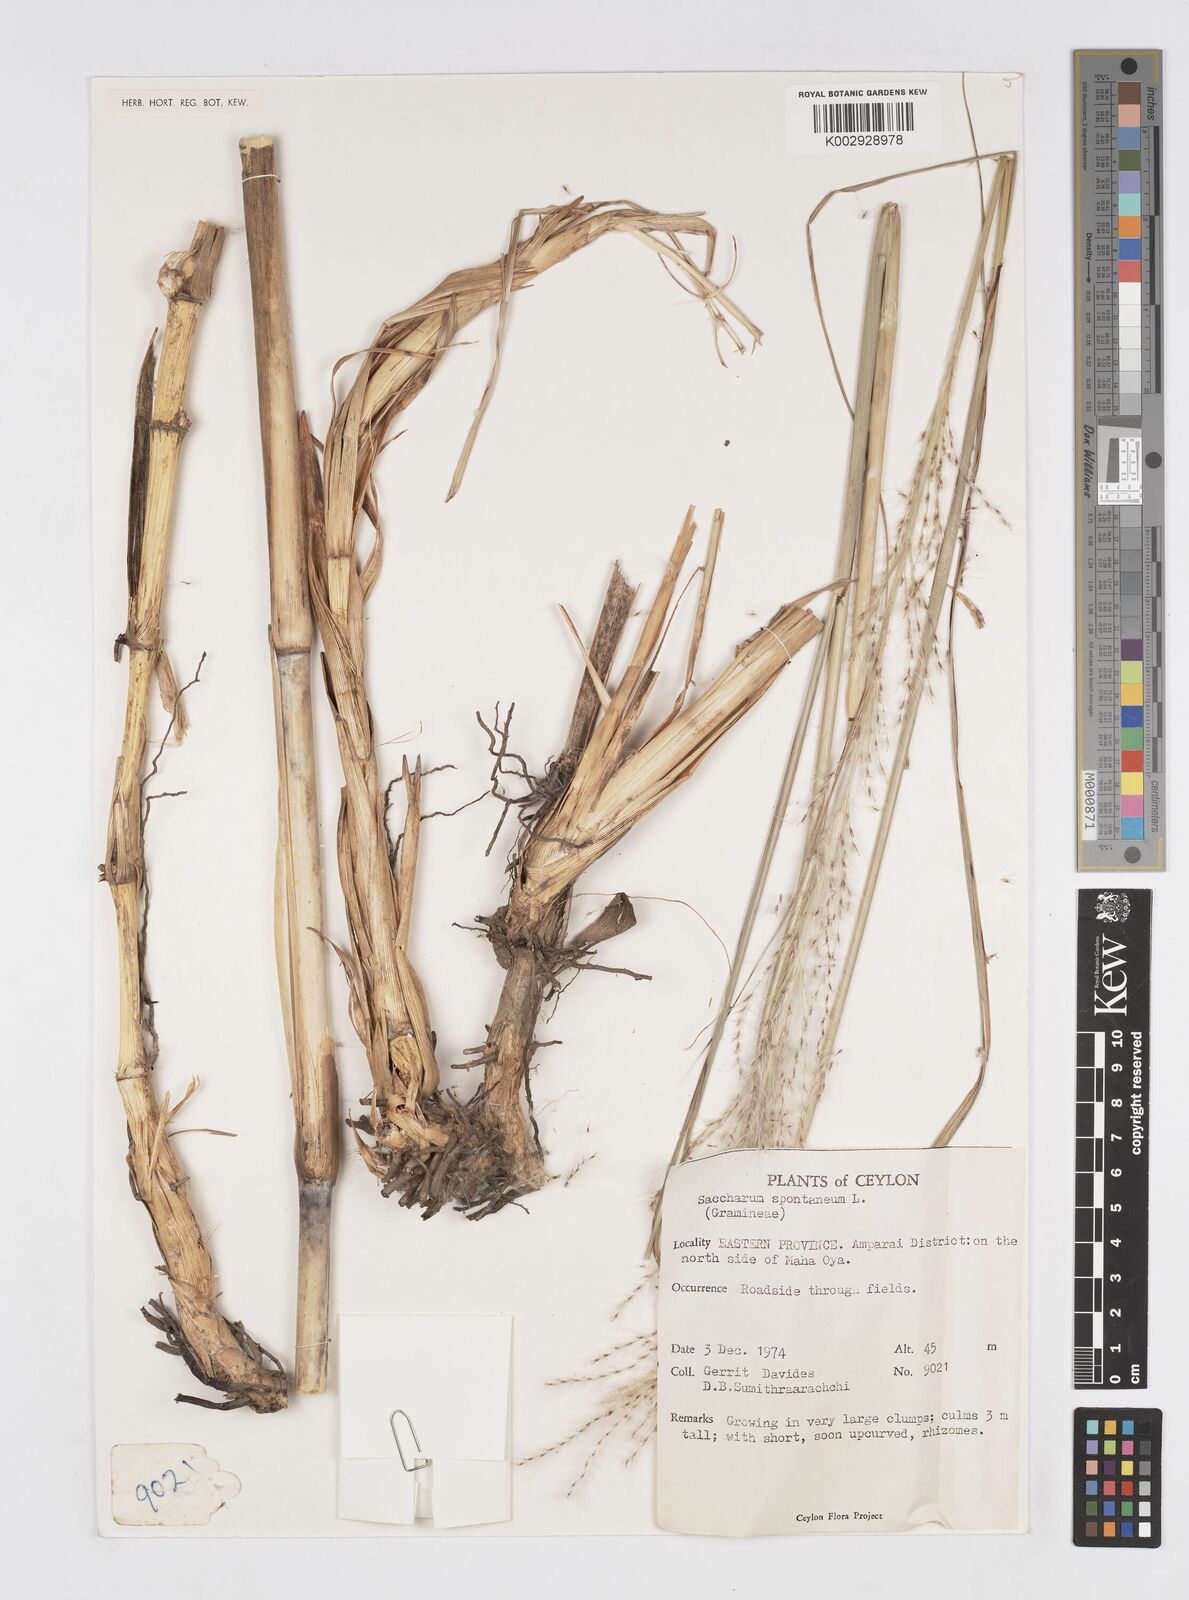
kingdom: Plantae
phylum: Tracheophyta
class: Liliopsida
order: Poales
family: Poaceae
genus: Saccharum
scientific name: Saccharum spontaneum
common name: Wild sugarcane
